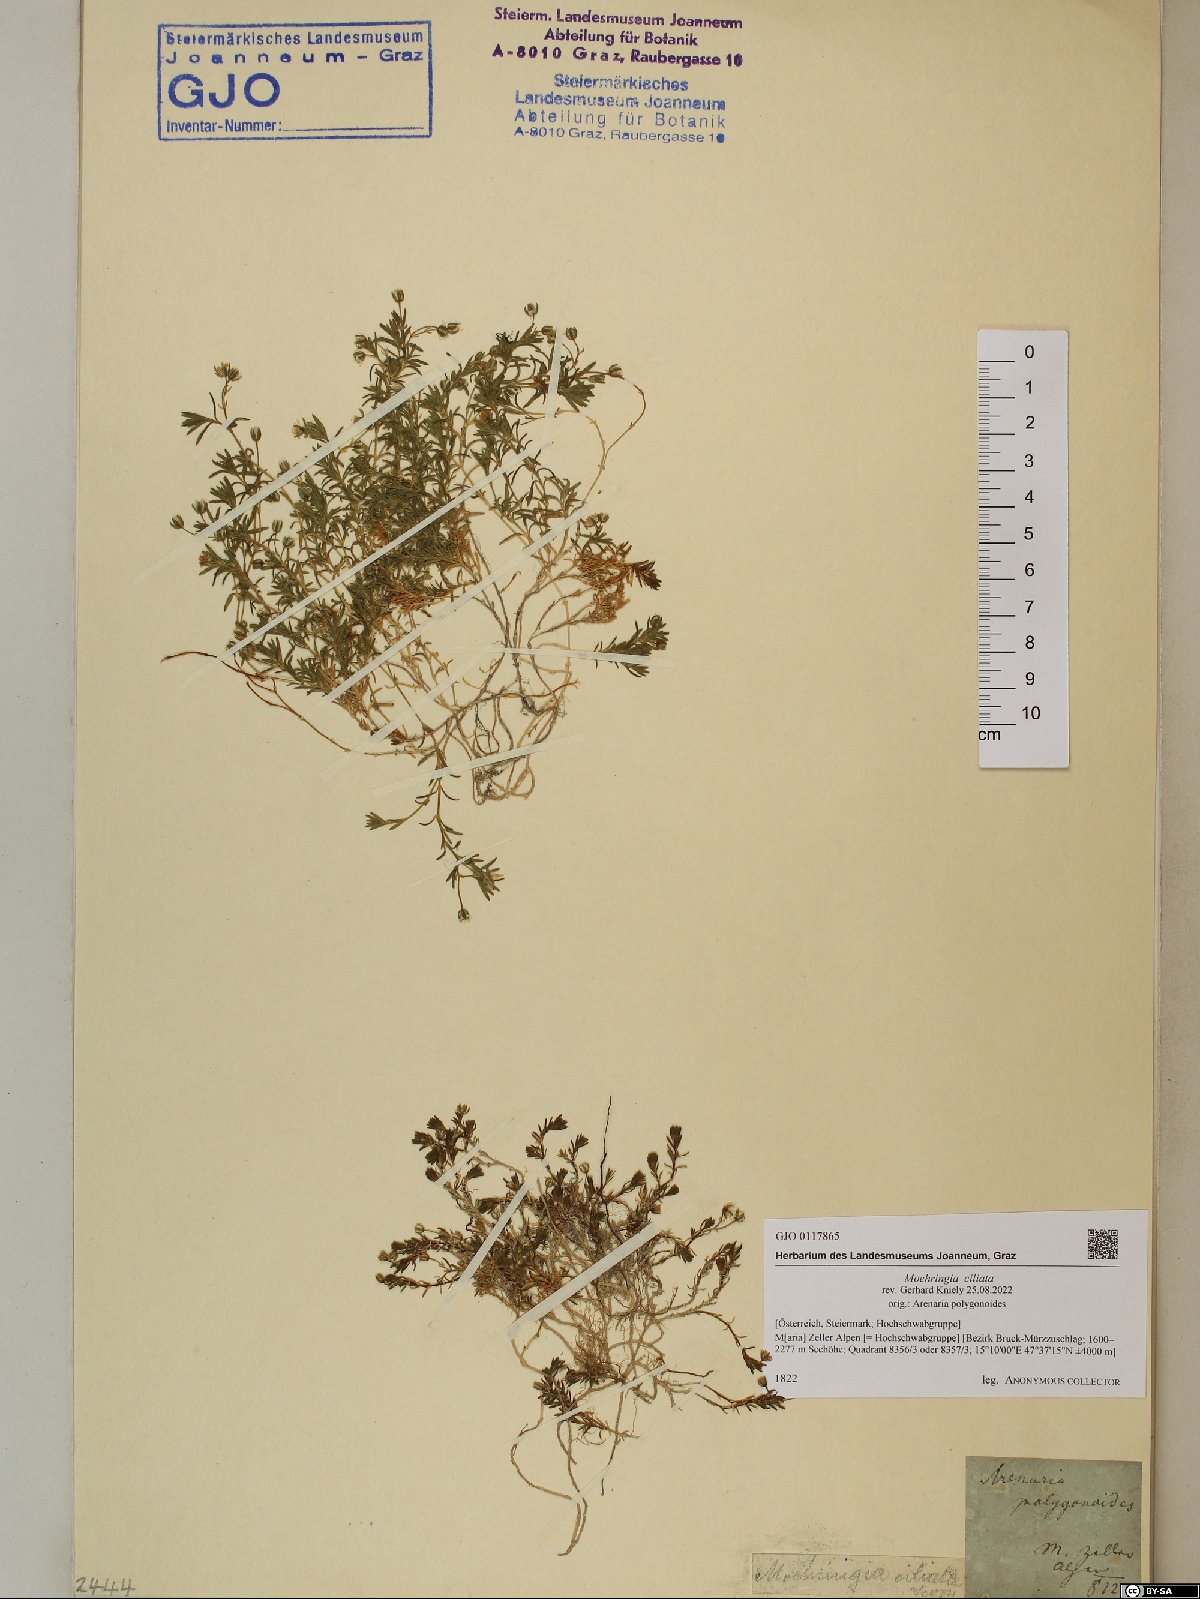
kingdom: Plantae
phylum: Tracheophyta
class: Magnoliopsida
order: Caryophyllales
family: Caryophyllaceae
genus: Moehringia
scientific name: Moehringia ciliata
